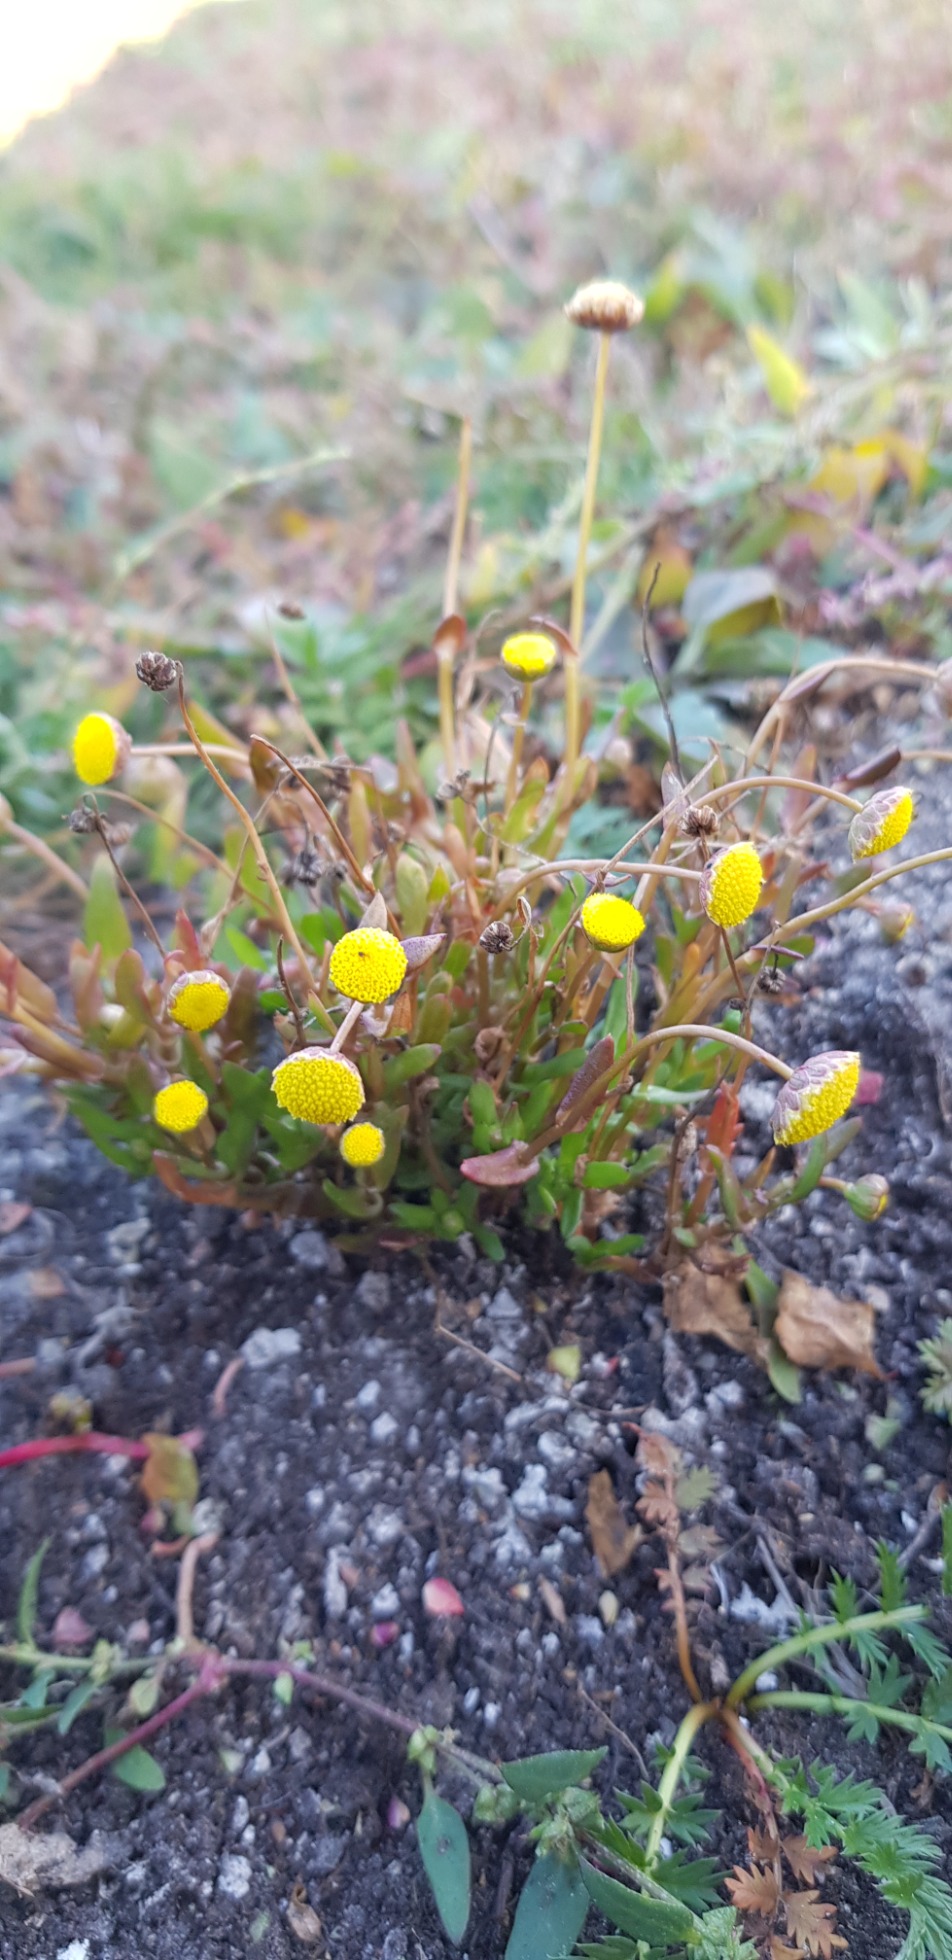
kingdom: Plantae
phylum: Tracheophyta
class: Magnoliopsida
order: Asterales
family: Asteraceae
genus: Cotula
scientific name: Cotula coronopifolia
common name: Firkløft
